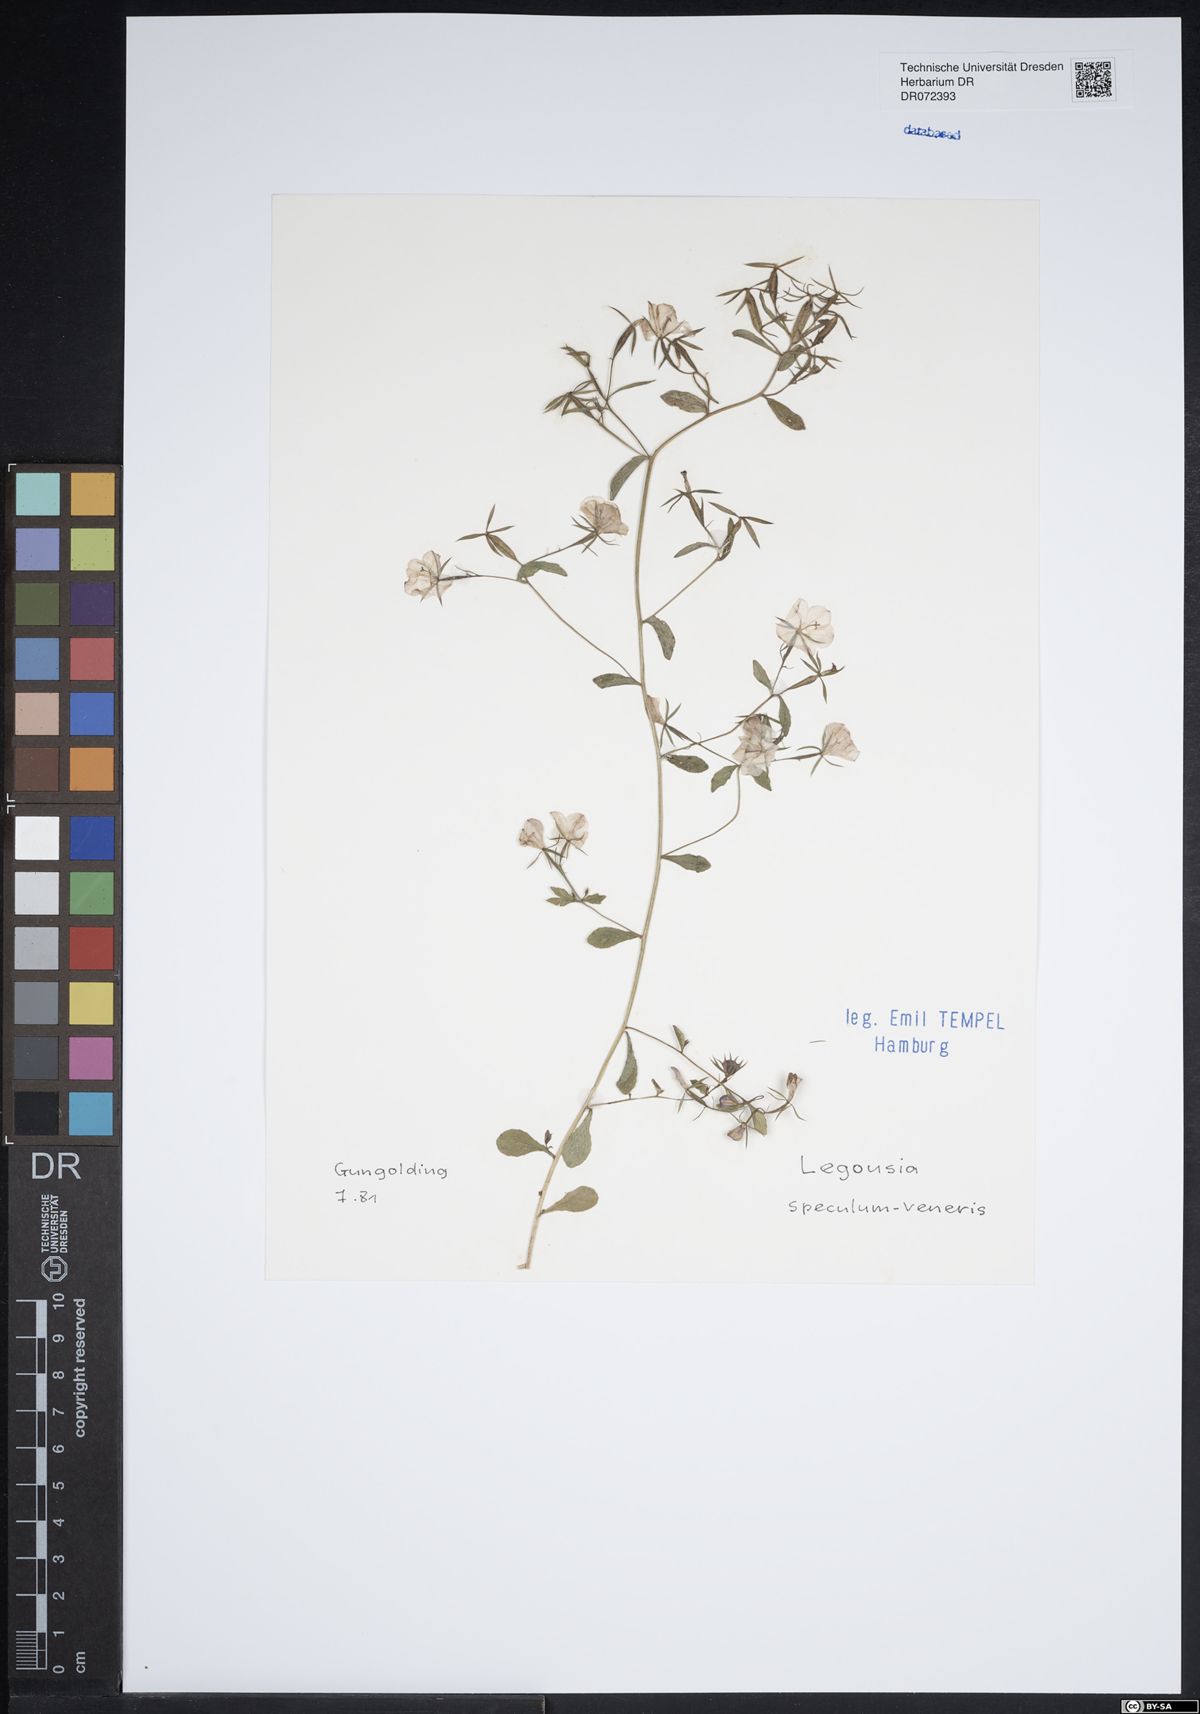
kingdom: Plantae
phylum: Tracheophyta
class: Magnoliopsida
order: Asterales
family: Campanulaceae
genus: Legousia
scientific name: Legousia speculum-veneris
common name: Large venus's-looking-glass
